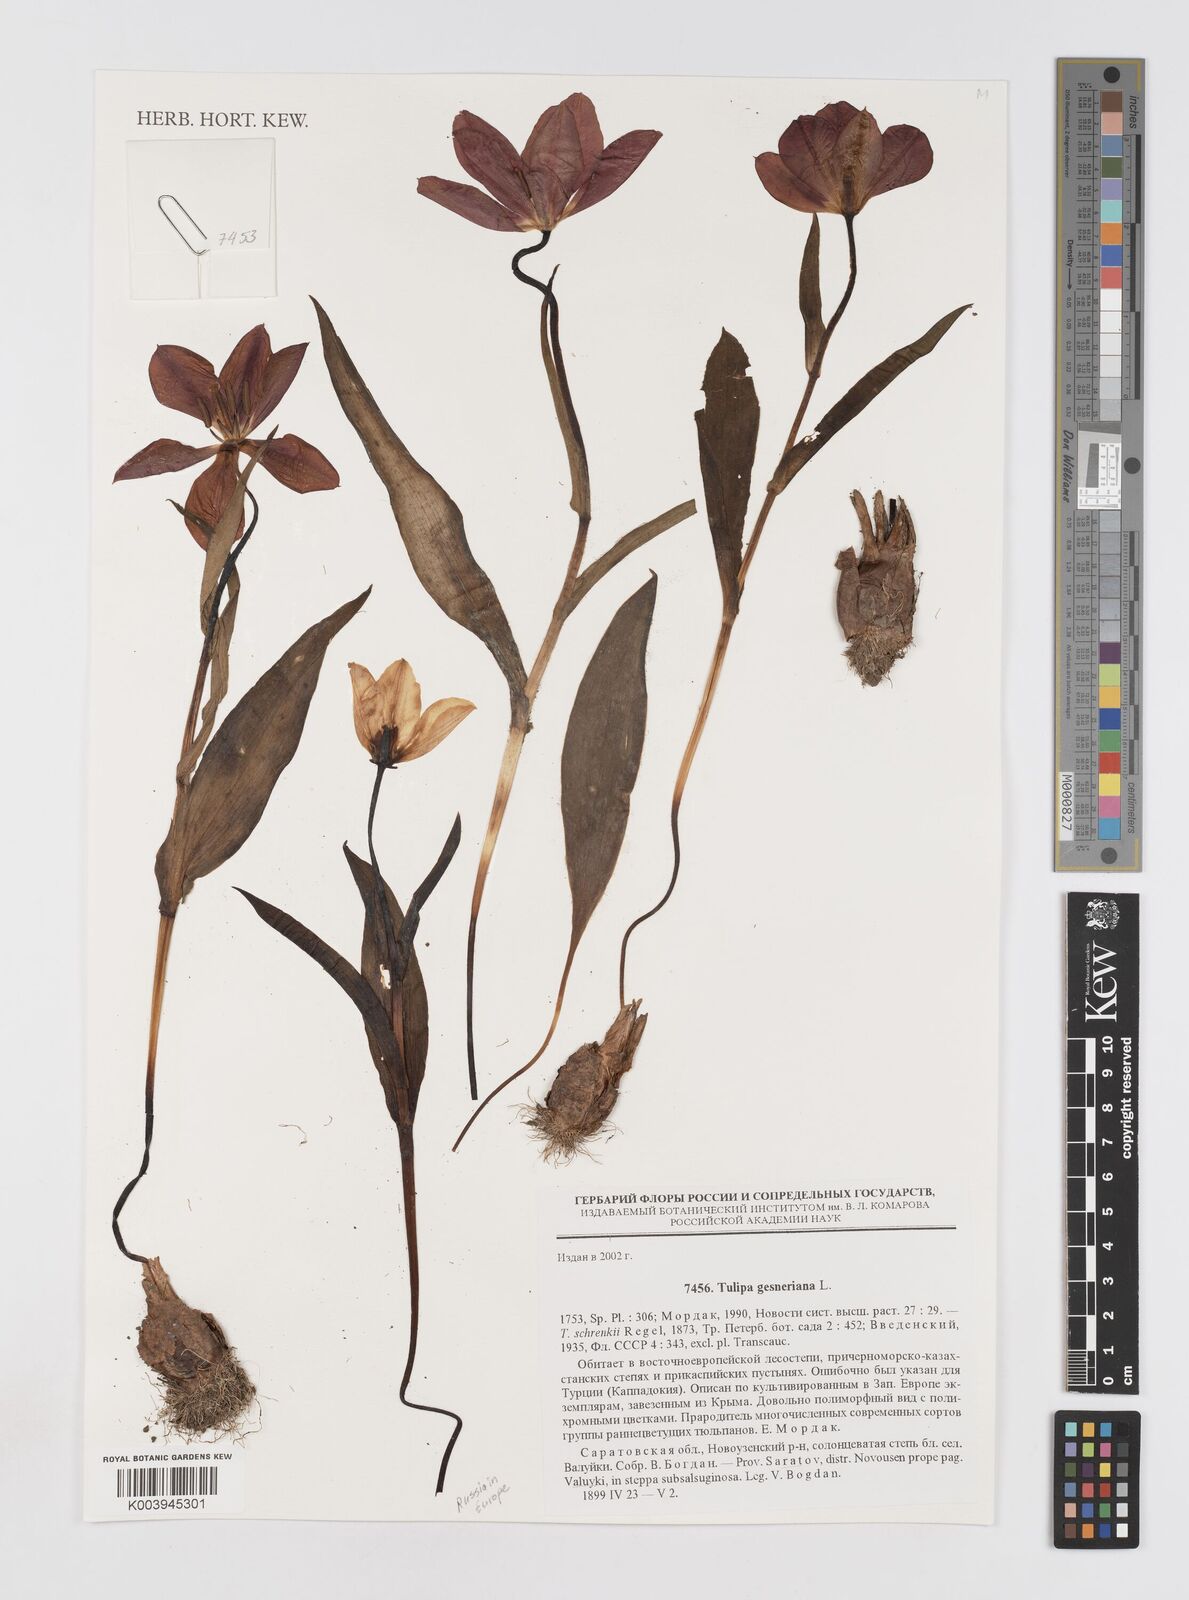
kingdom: Plantae
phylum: Tracheophyta
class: Liliopsida
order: Liliales
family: Liliaceae
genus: Tulipa
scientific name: Tulipa gesneriana
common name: Garden tulip
